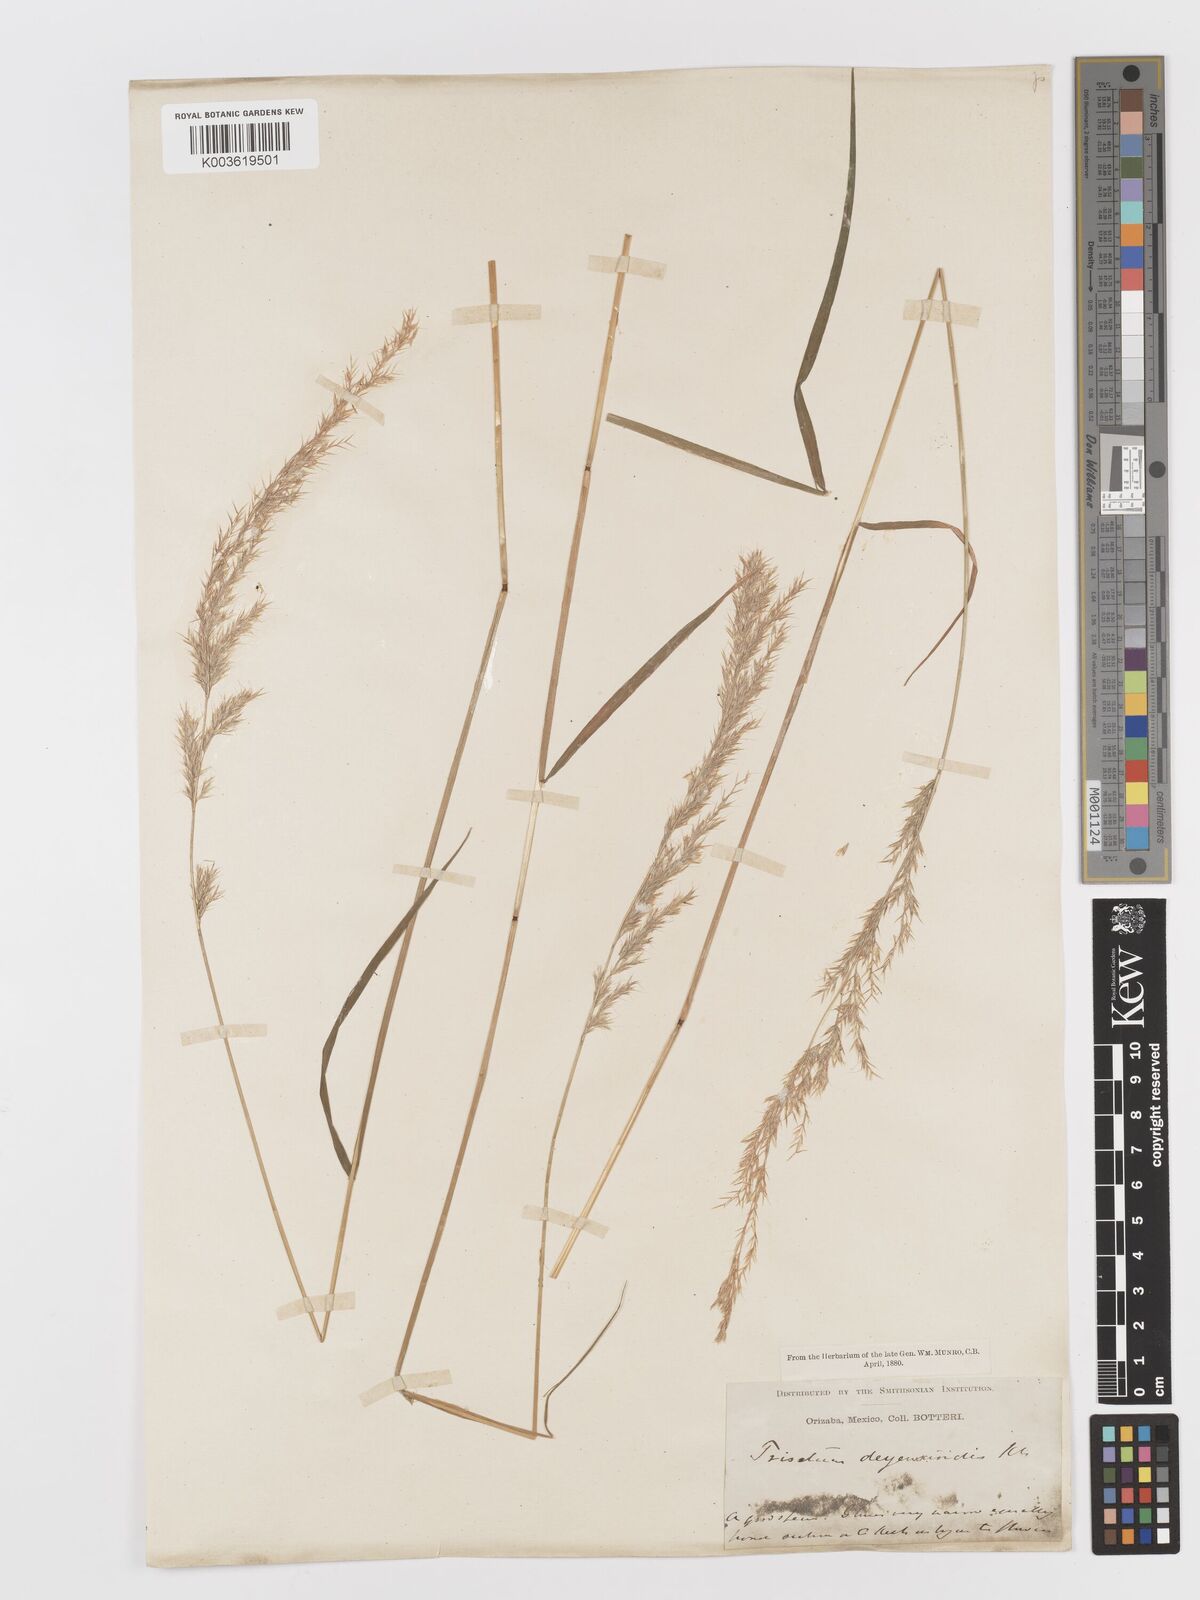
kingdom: Plantae
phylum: Tracheophyta
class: Liliopsida
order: Poales
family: Poaceae
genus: Peyritschia
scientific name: Peyritschia deyeuxioides
